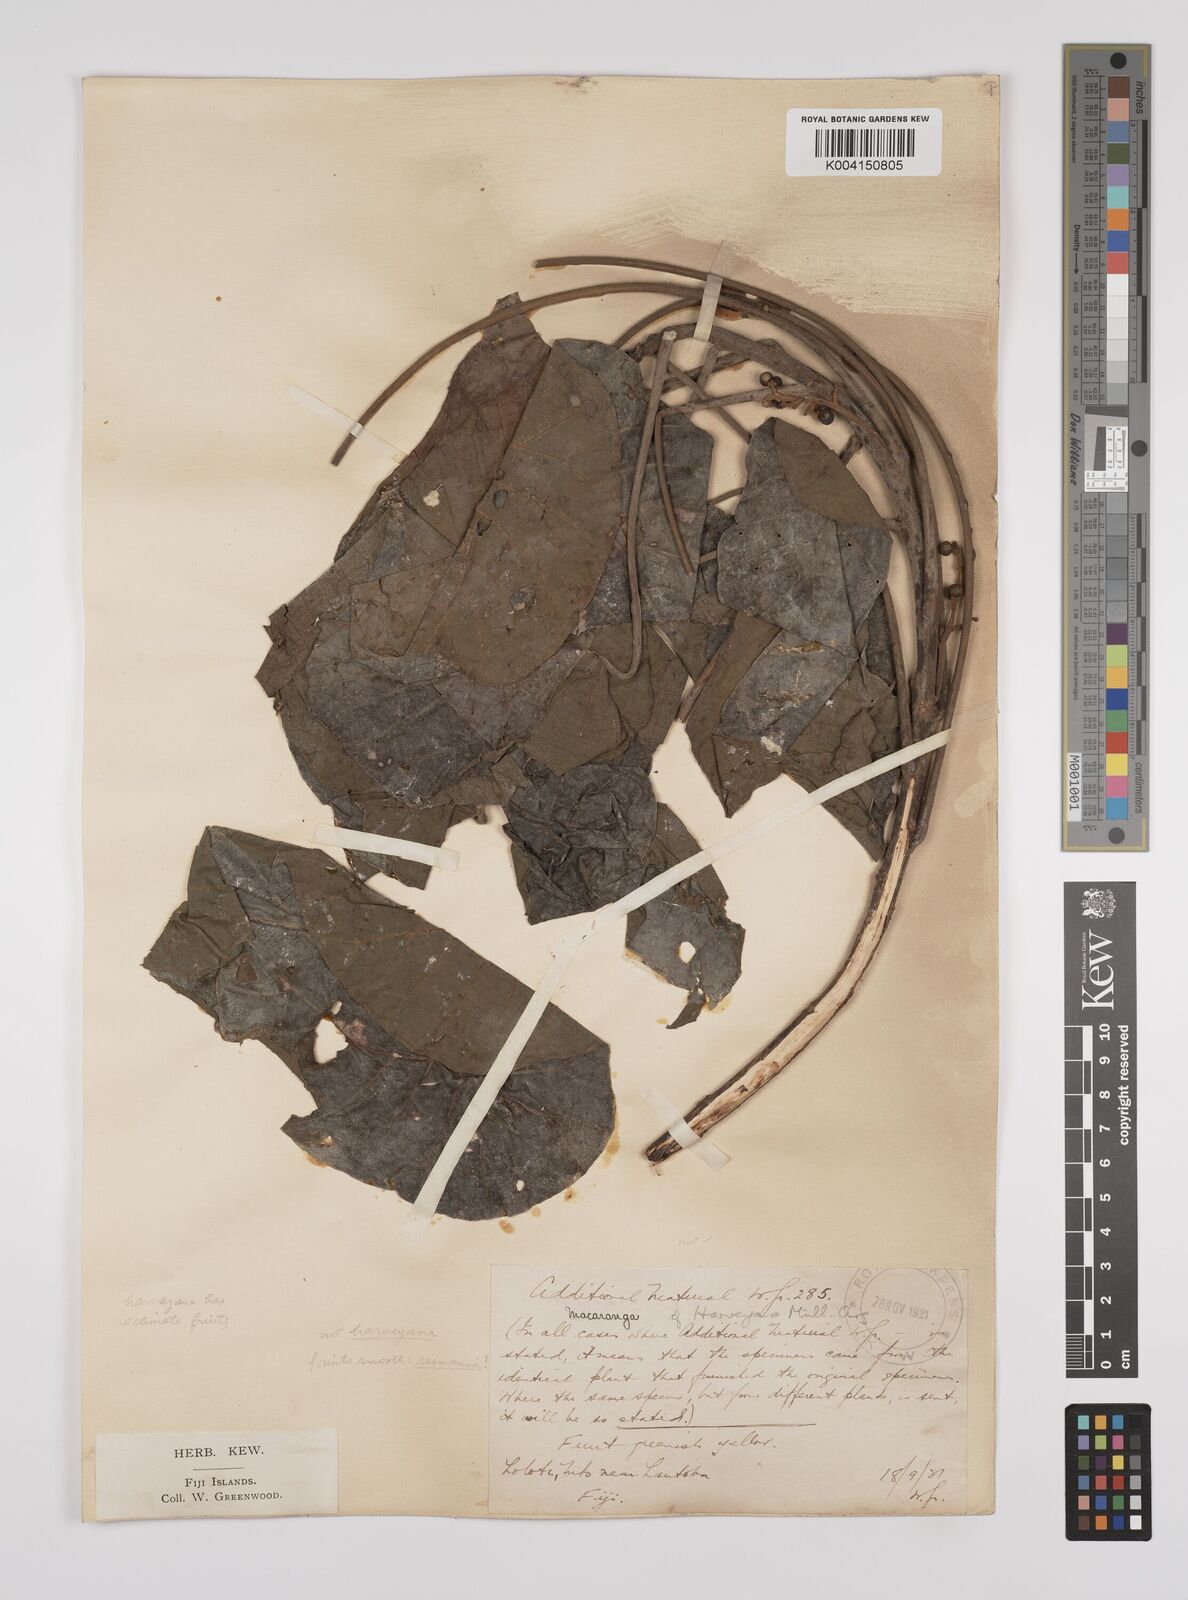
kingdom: Plantae
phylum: Tracheophyta
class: Magnoliopsida
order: Malpighiales
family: Euphorbiaceae
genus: Macaranga
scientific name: Macaranga seemannii
